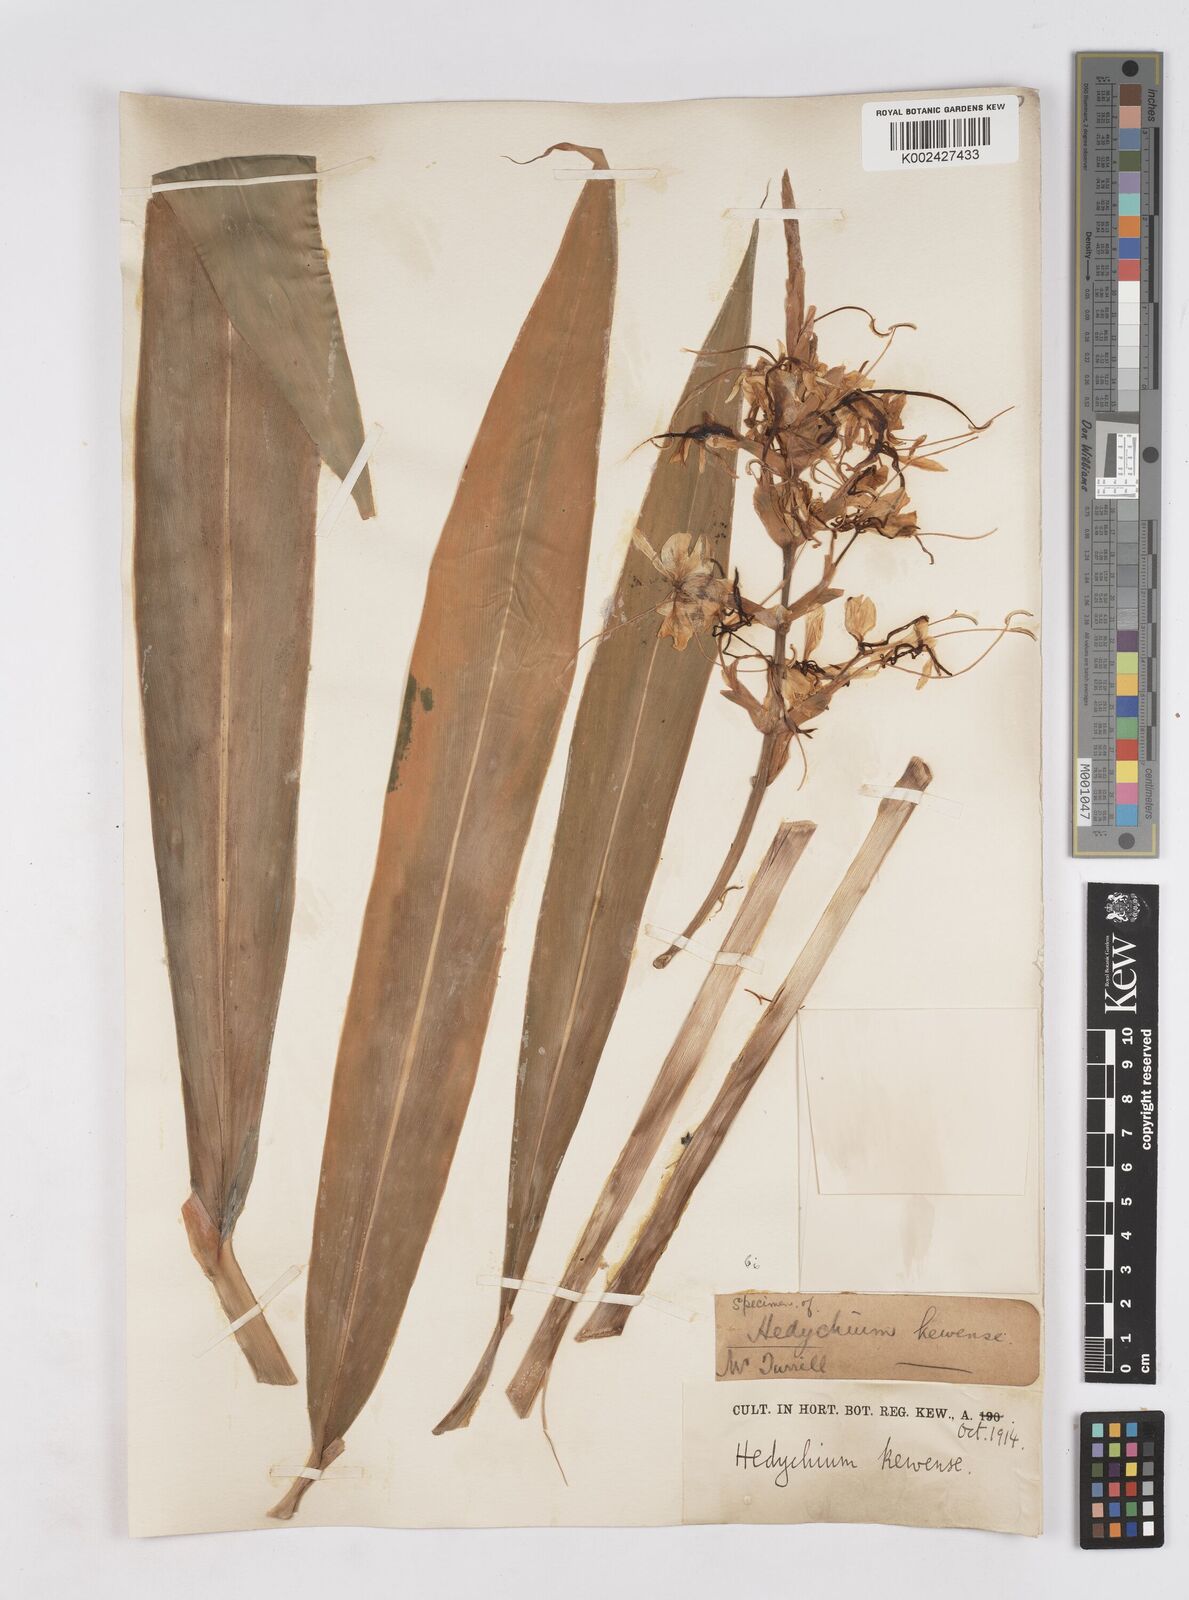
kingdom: Plantae
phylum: Tracheophyta
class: Liliopsida
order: Zingiberales
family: Zingiberaceae
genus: Hedychium
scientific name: Hedychium
